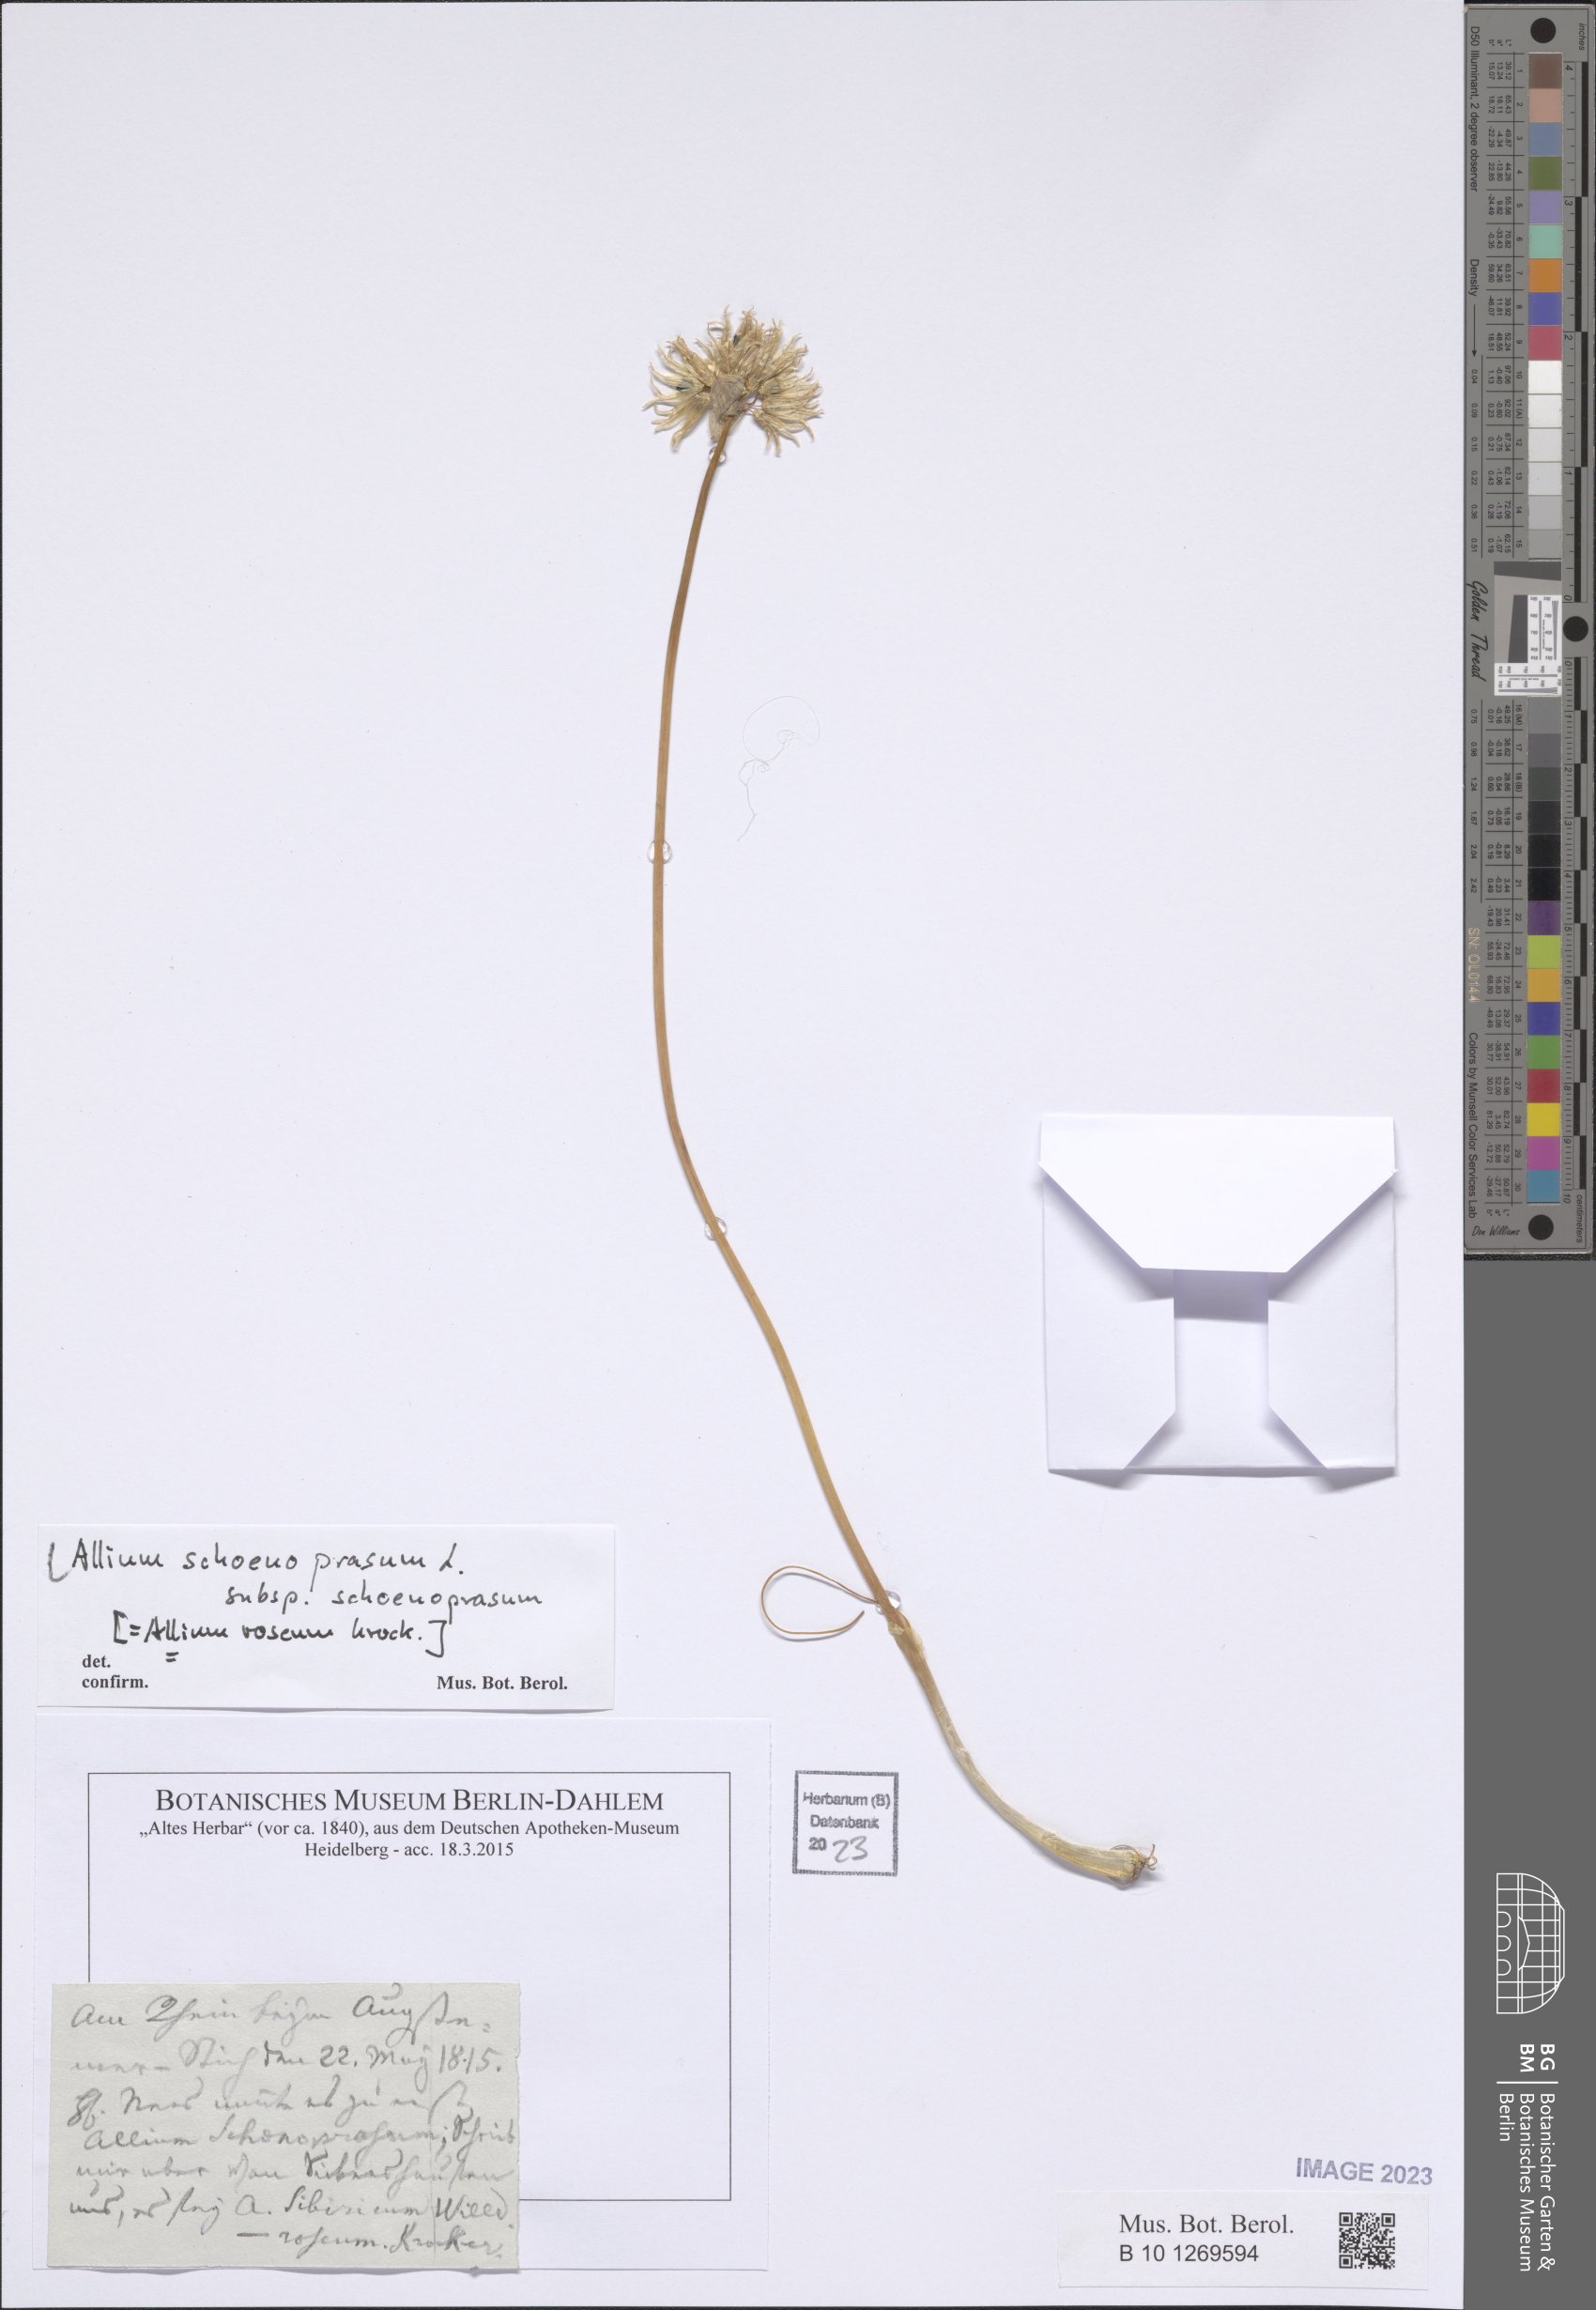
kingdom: Plantae
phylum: Tracheophyta
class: Liliopsida
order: Asparagales
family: Amaryllidaceae
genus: Allium
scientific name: Allium schoenoprasum
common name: Chives
